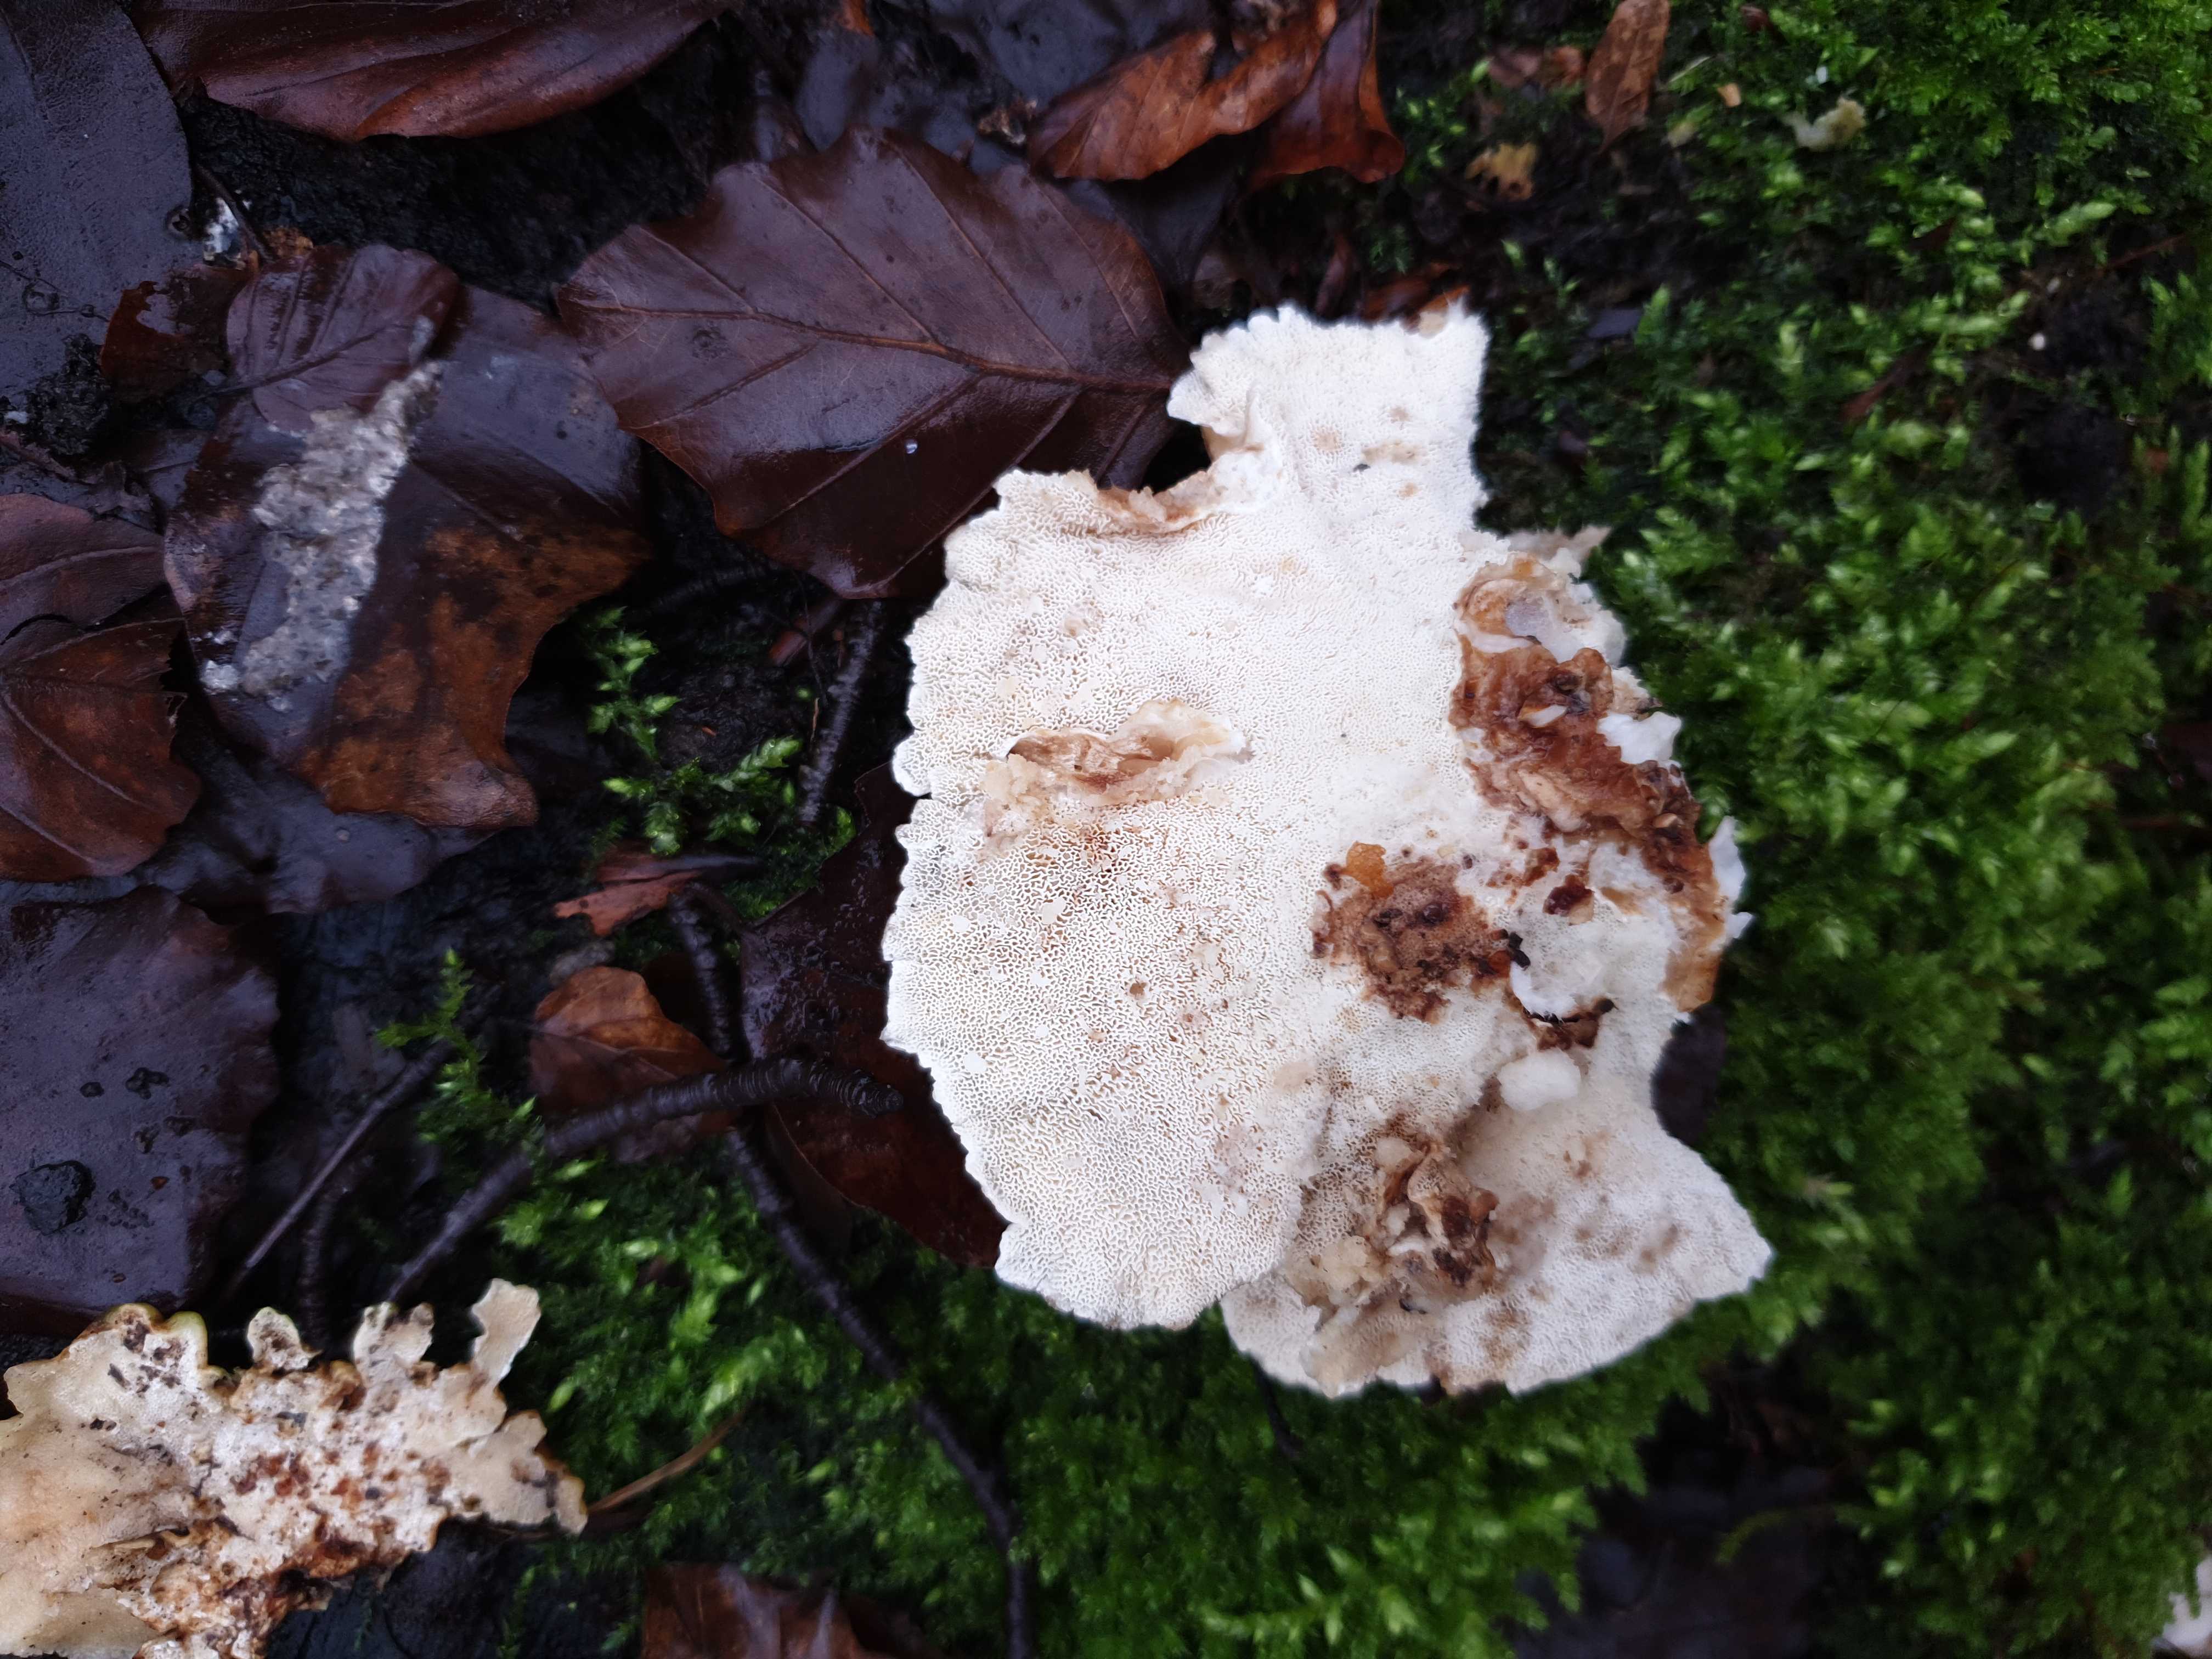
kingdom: Fungi
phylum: Basidiomycota
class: Agaricomycetes
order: Polyporales
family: Polyporaceae
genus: Trametes
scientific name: Trametes
